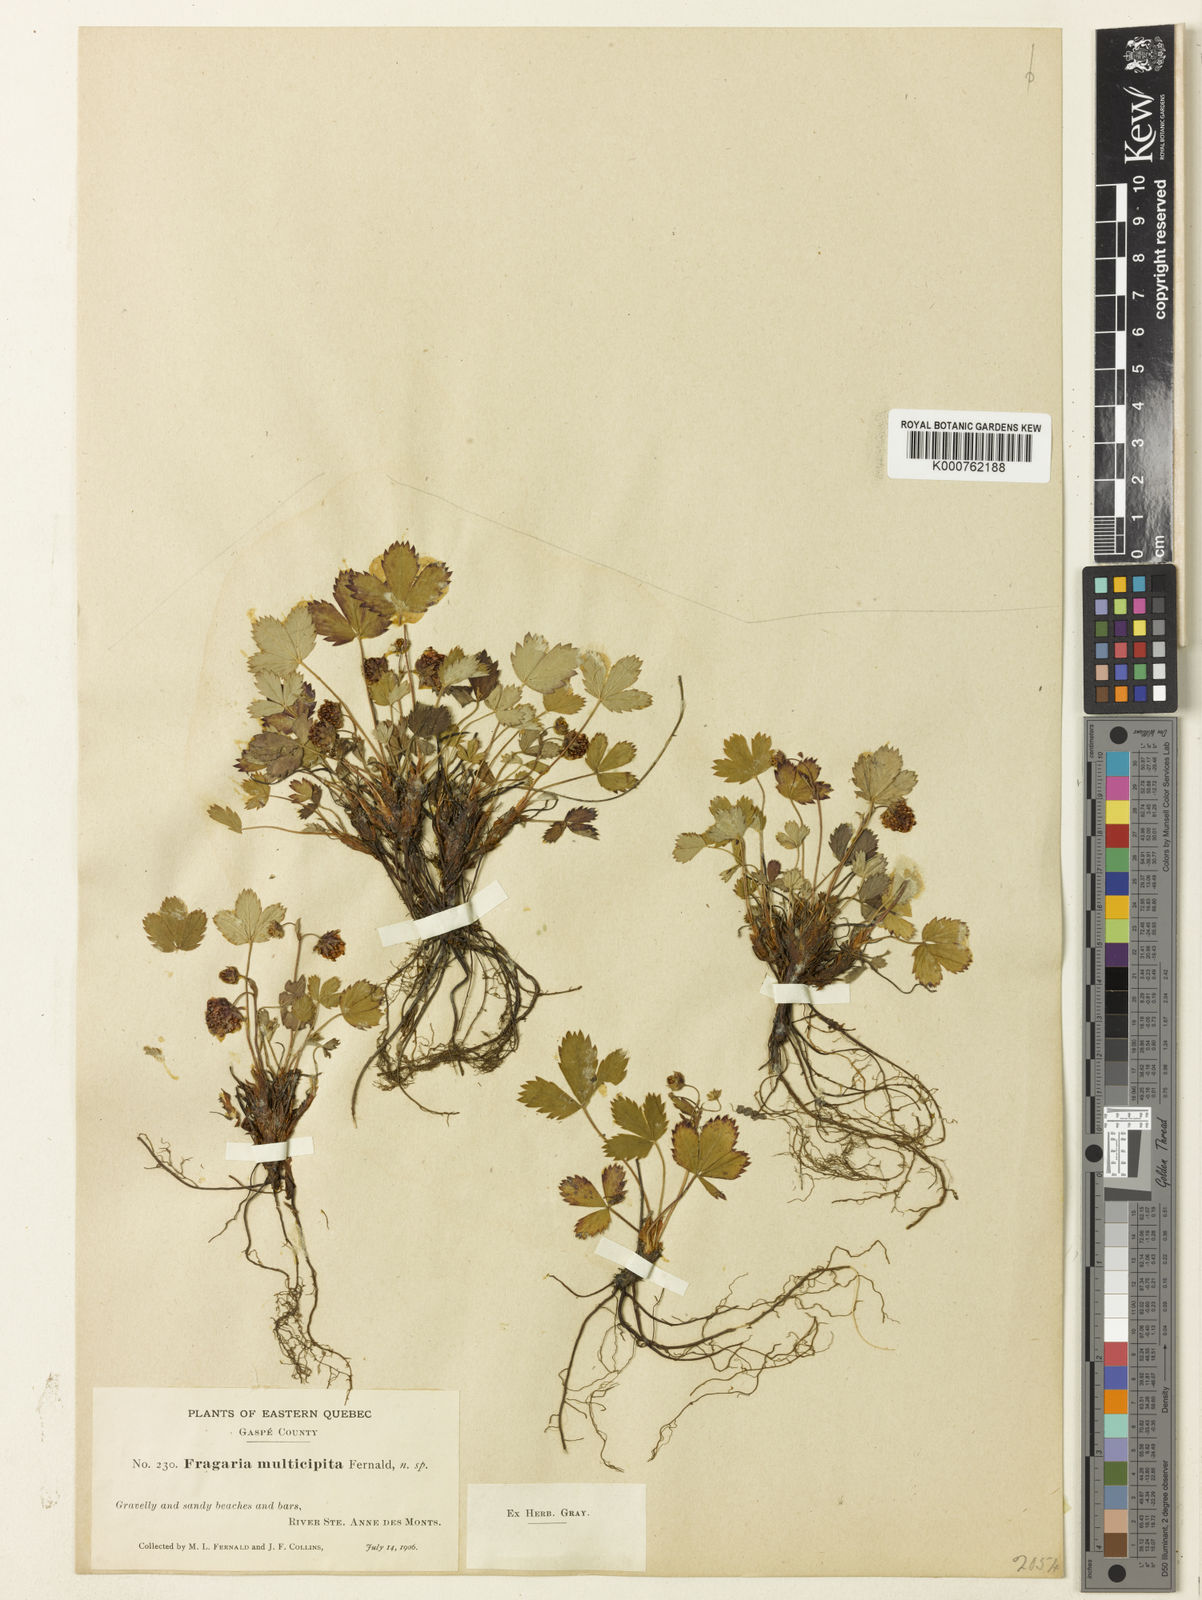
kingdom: Plantae
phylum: Tracheophyta
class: Magnoliopsida
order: Rosales
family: Rosaceae
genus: Fragaria
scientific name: Fragaria virginiana
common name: Thickleaved wild strawberry
